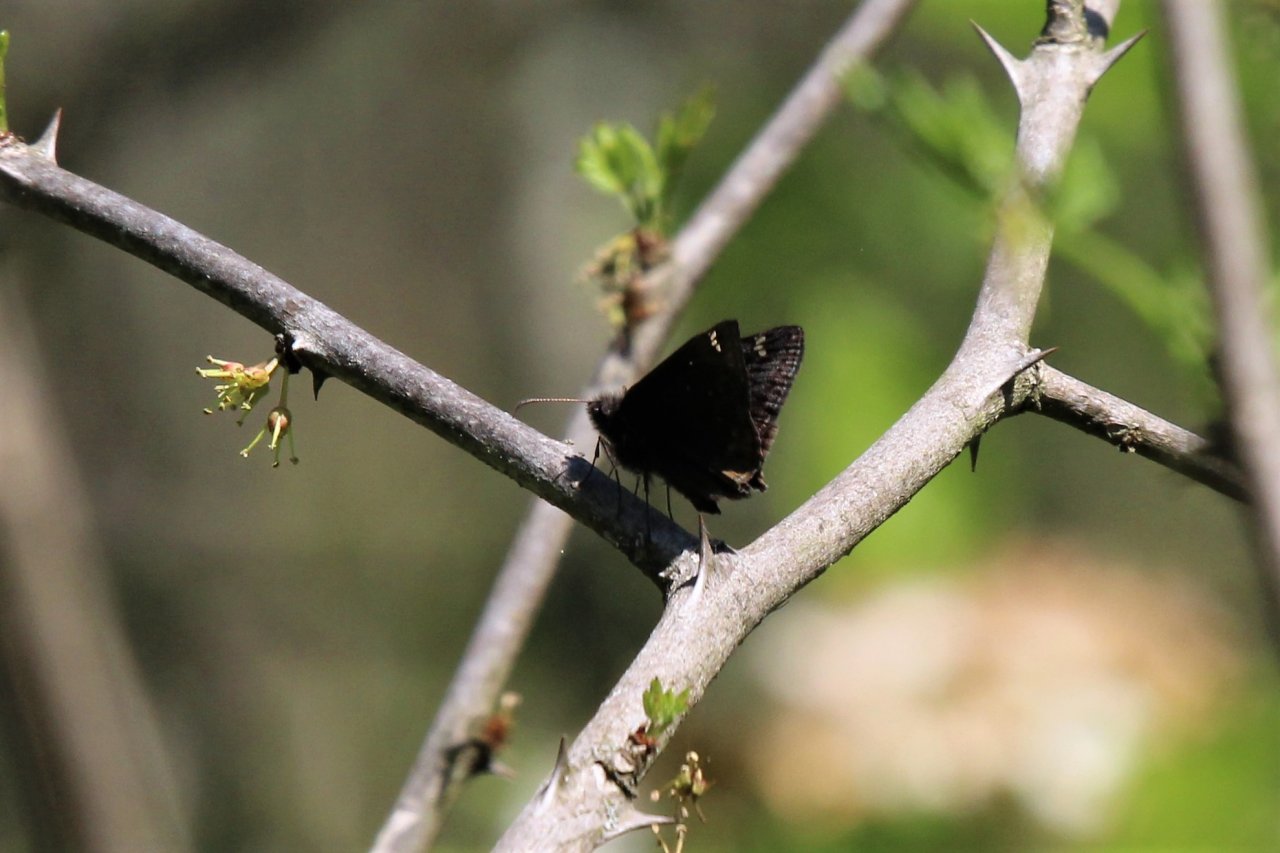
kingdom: Animalia
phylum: Arthropoda
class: Insecta
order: Lepidoptera
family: Hesperiidae
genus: Erynnis
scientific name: Erynnis
